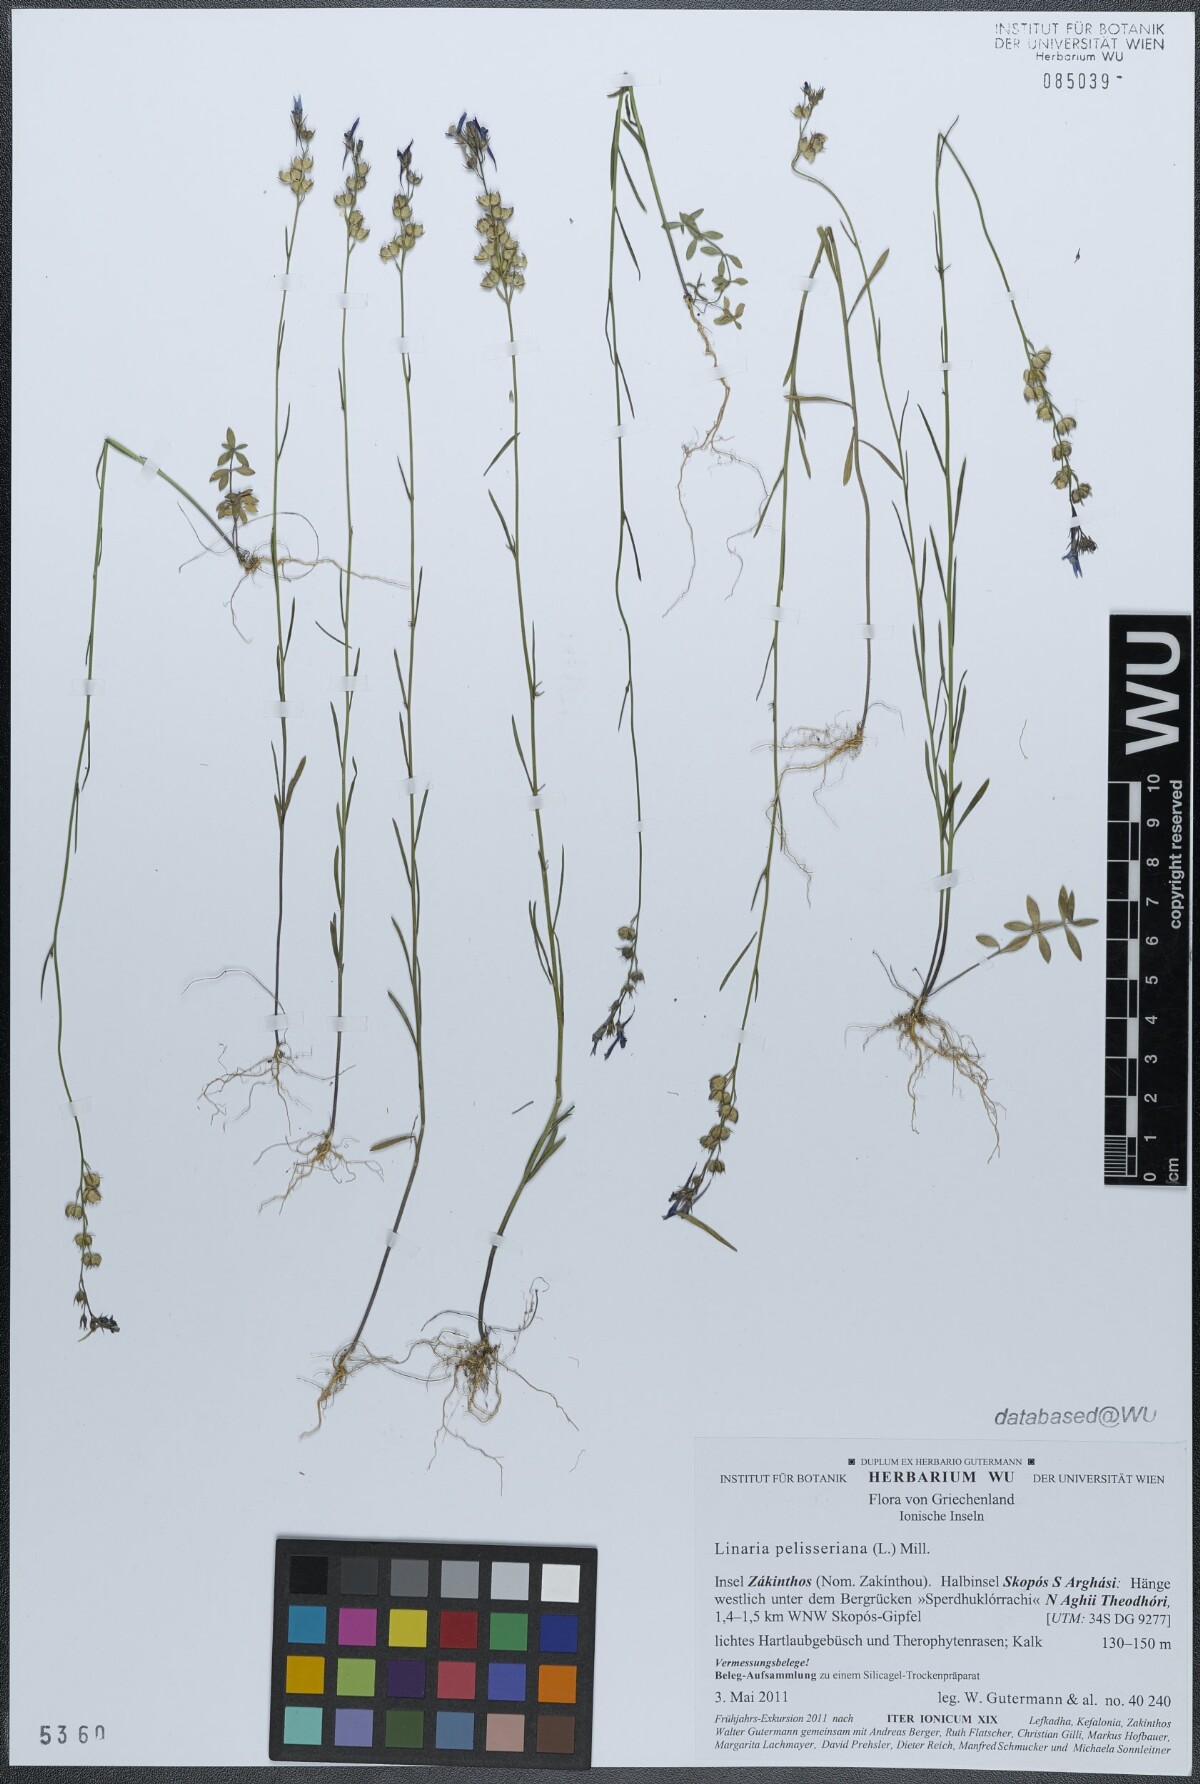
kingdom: Plantae
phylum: Tracheophyta
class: Magnoliopsida
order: Lamiales
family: Plantaginaceae
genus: Linaria
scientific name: Linaria pelisseriana
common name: Jersey toadflax
